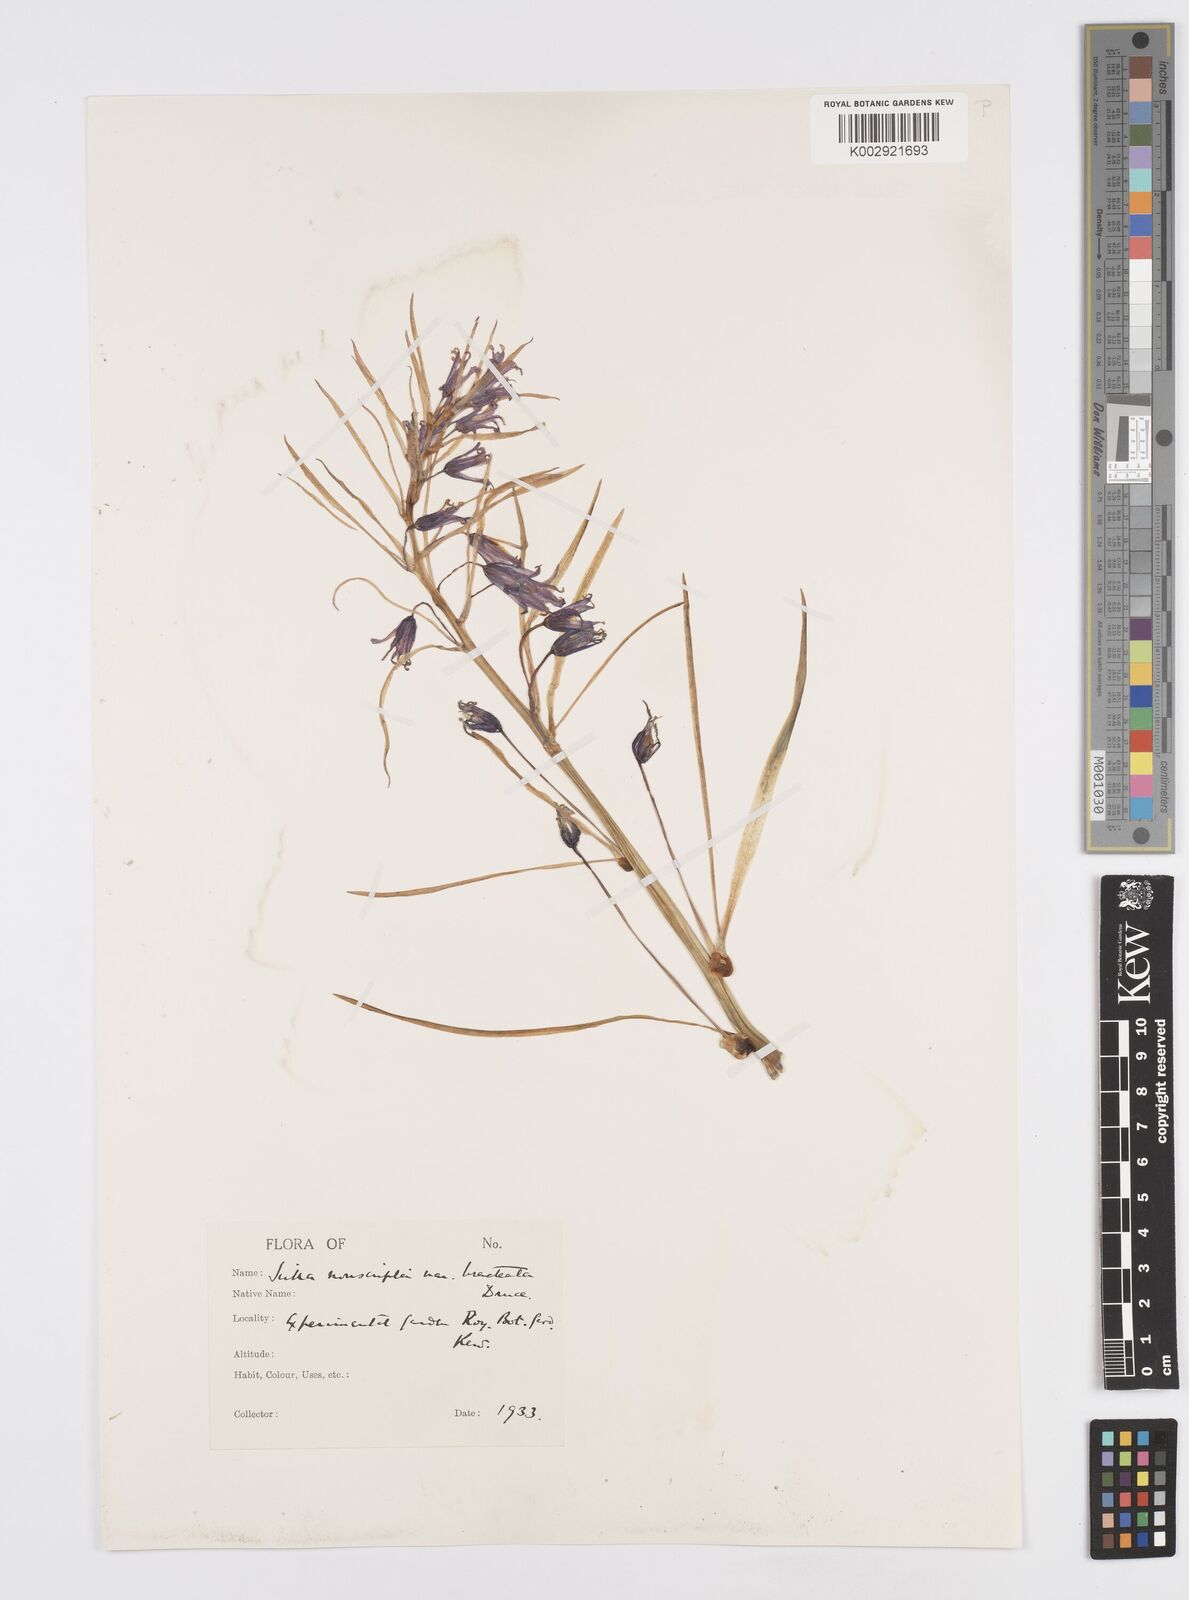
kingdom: Plantae
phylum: Tracheophyta
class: Liliopsida
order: Asparagales
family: Asparagaceae
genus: Hyacinthoides
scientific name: Hyacinthoides
